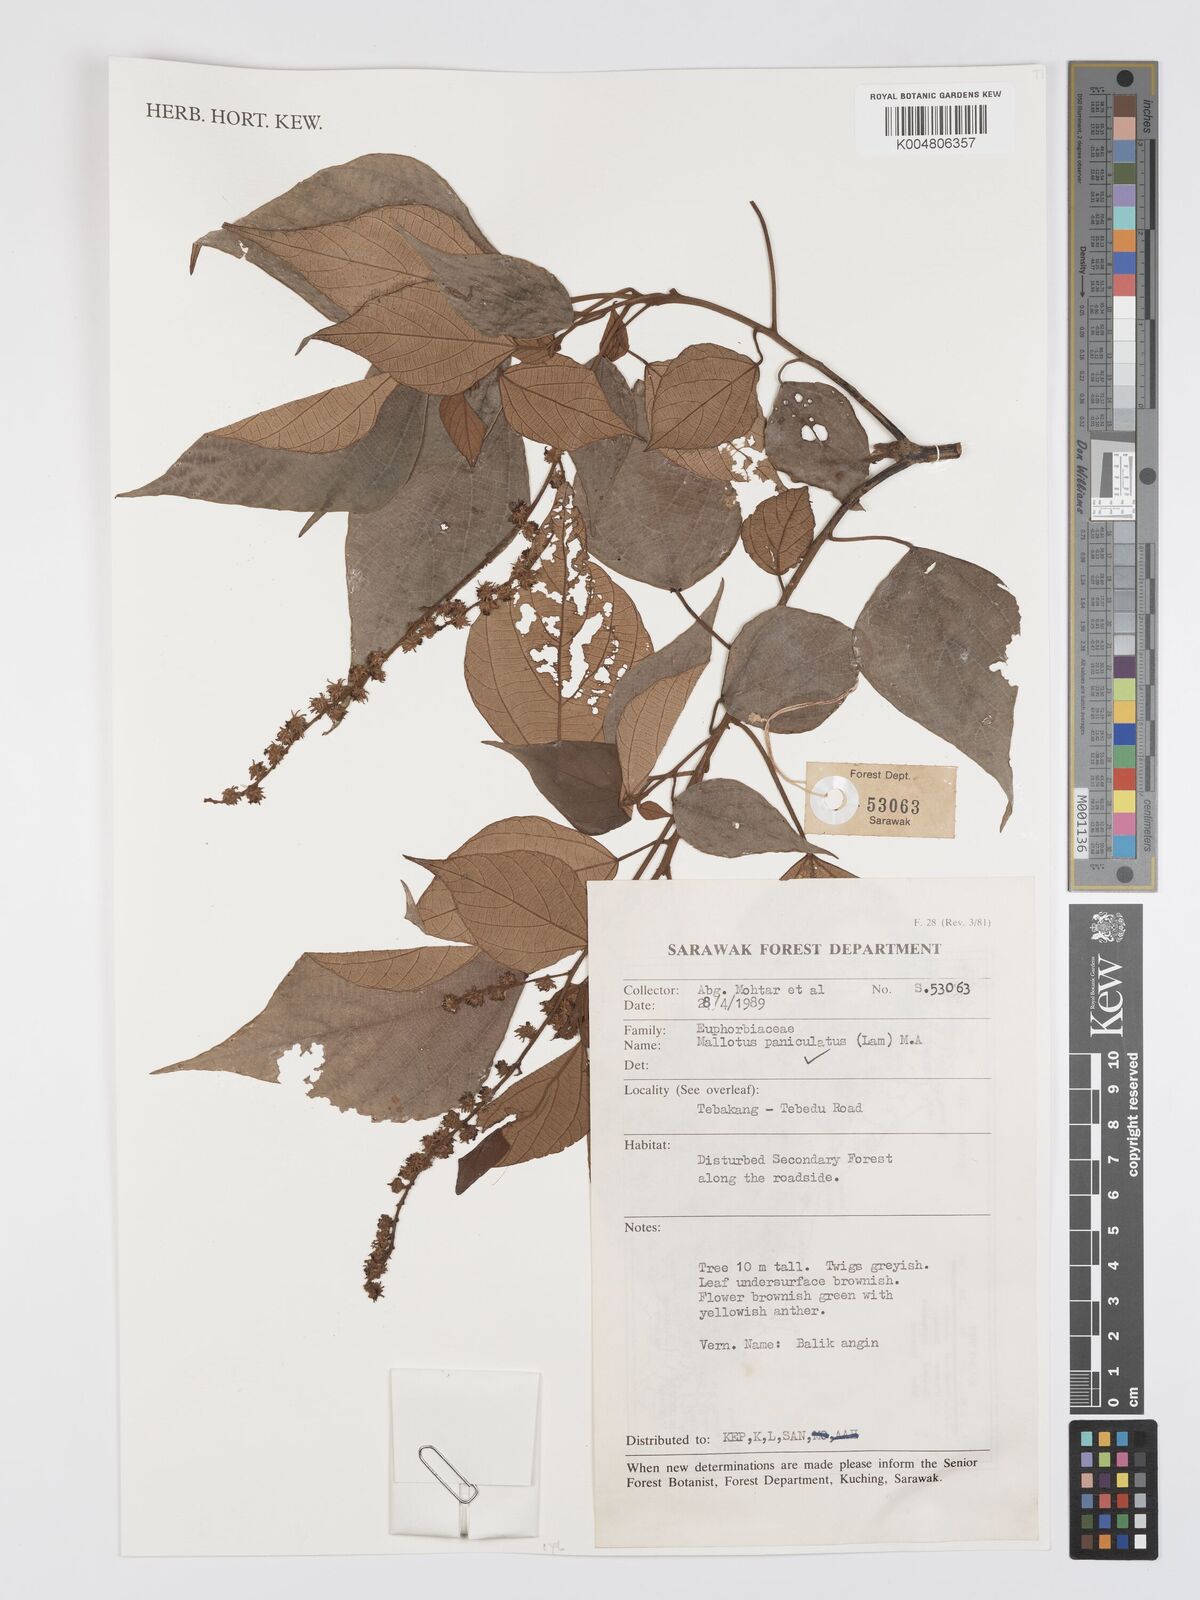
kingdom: Plantae
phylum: Tracheophyta
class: Magnoliopsida
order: Malpighiales
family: Euphorbiaceae
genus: Mallotus
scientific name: Mallotus paniculatus
